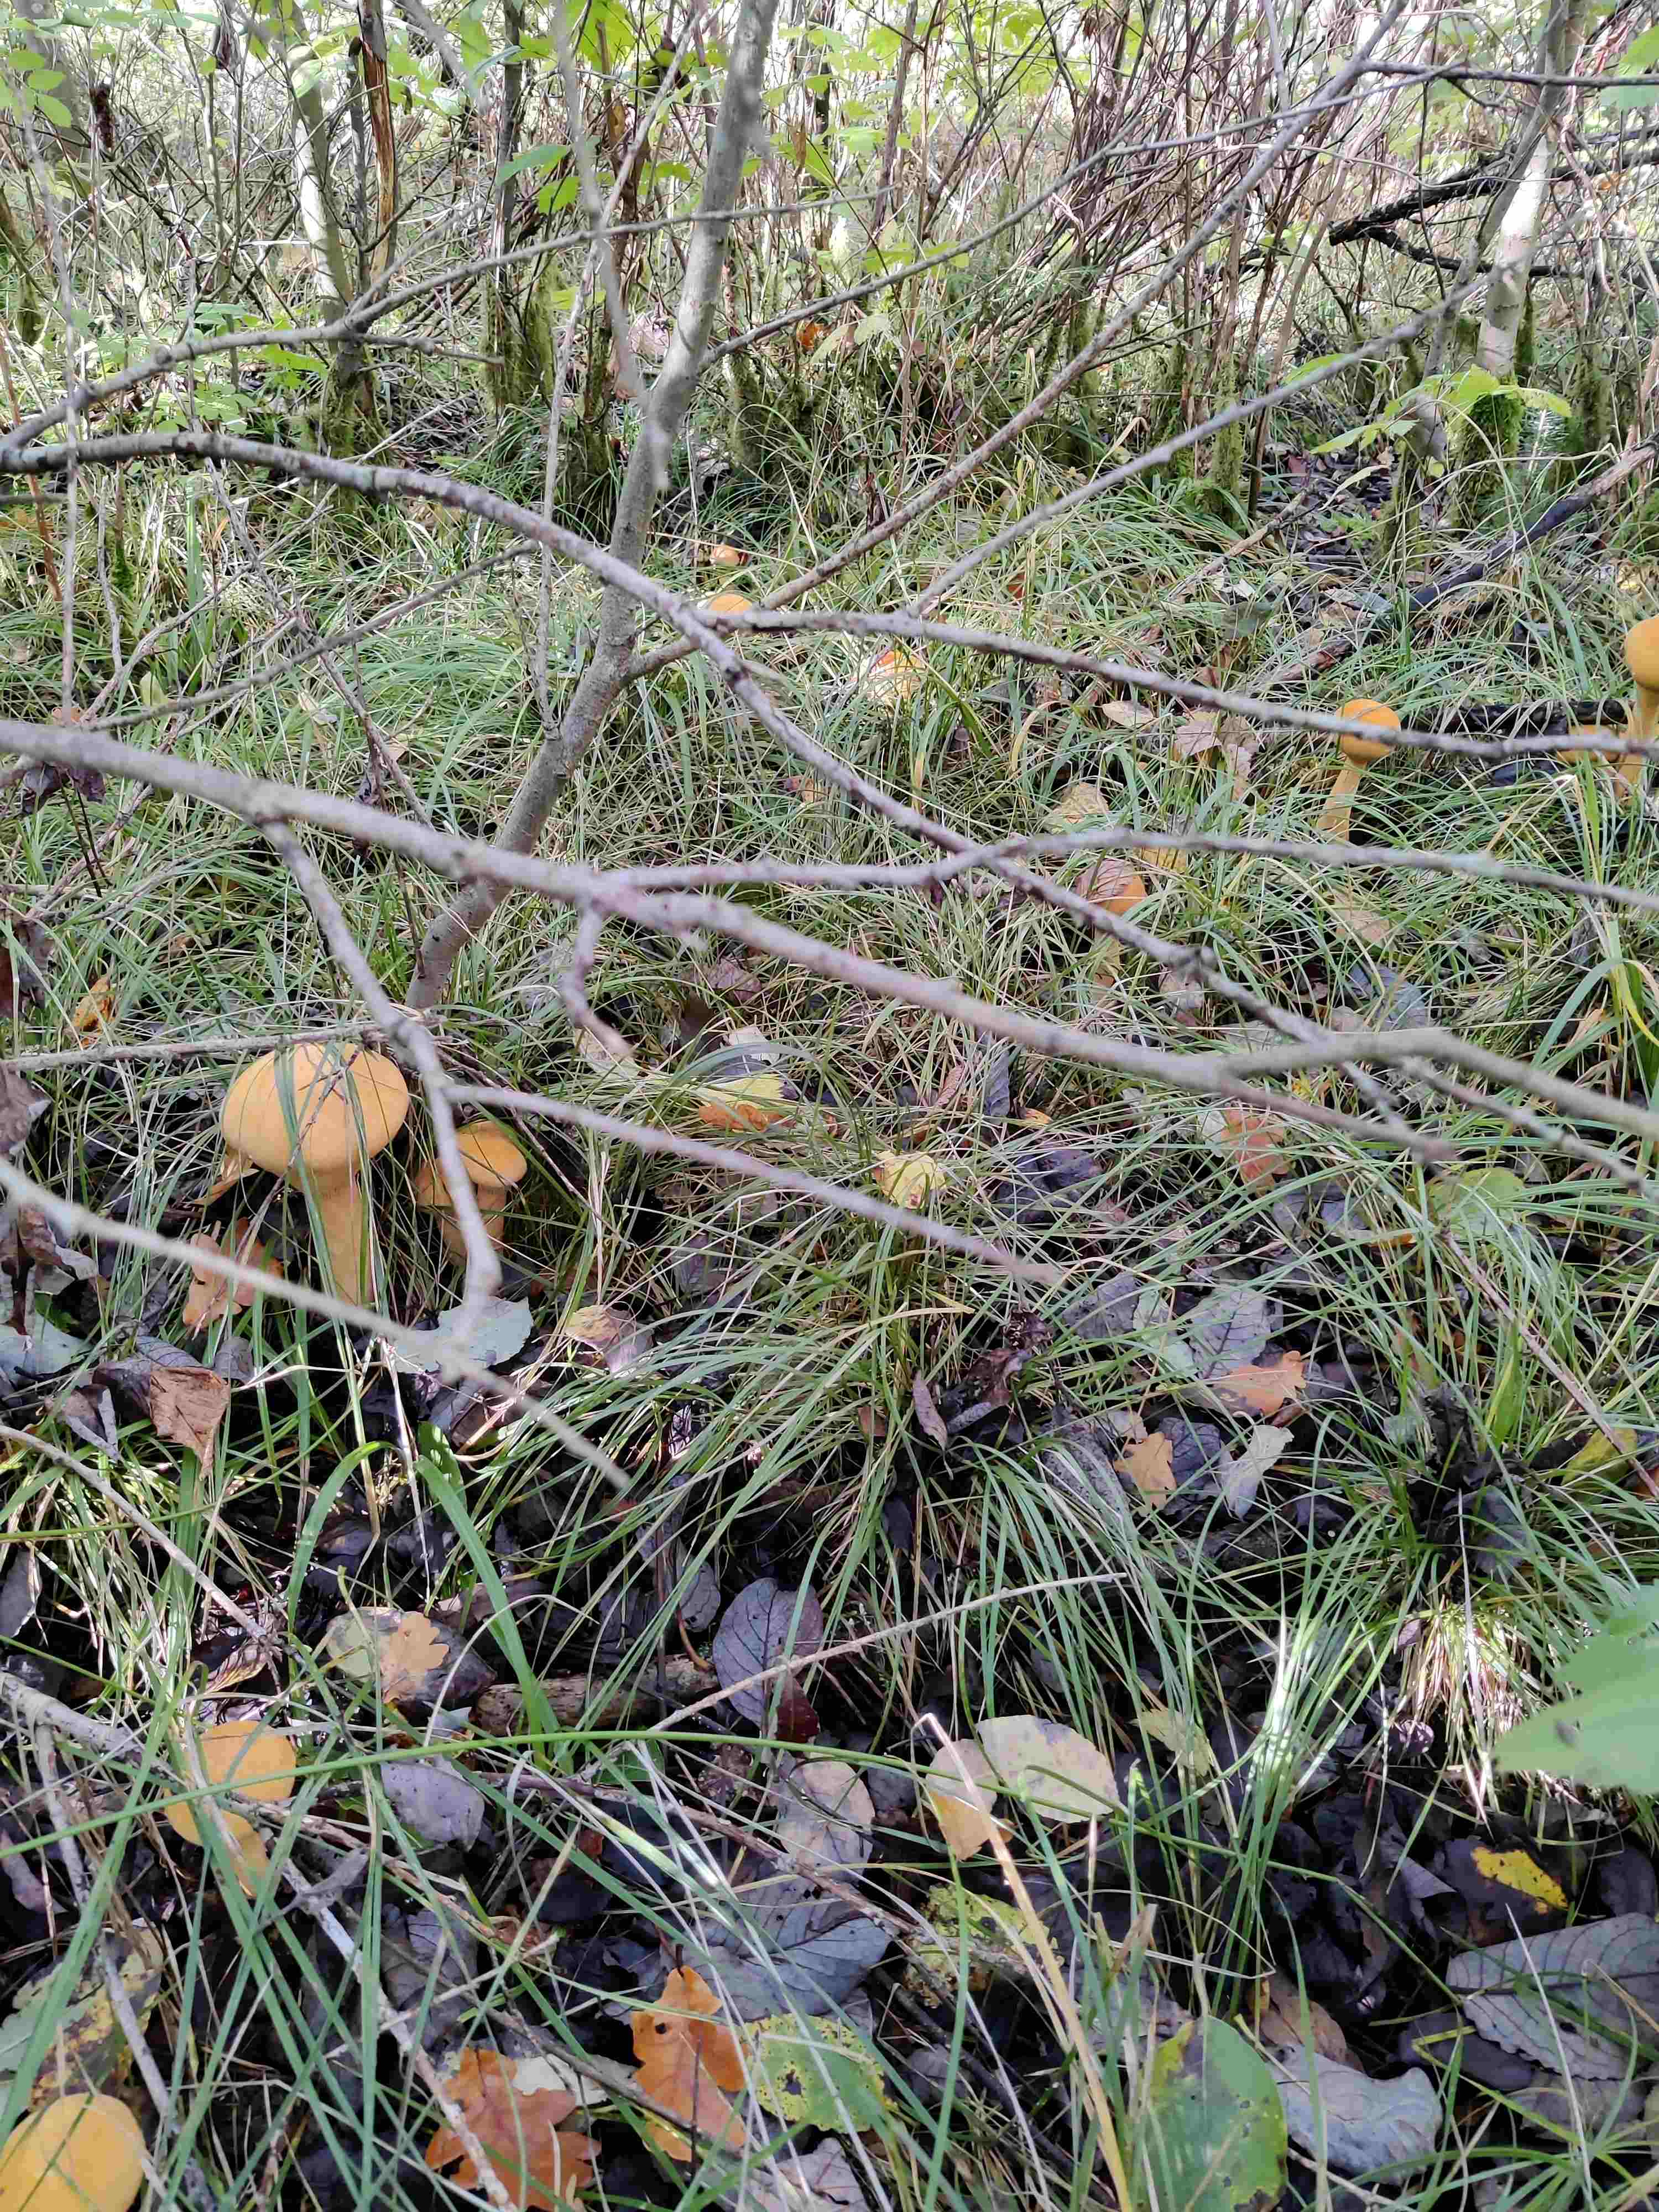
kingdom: Fungi
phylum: Basidiomycota
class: Agaricomycetes
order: Agaricales
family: Tricholomataceae
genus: Phaeolepiota
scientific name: Phaeolepiota aurea
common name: gyldenhat
